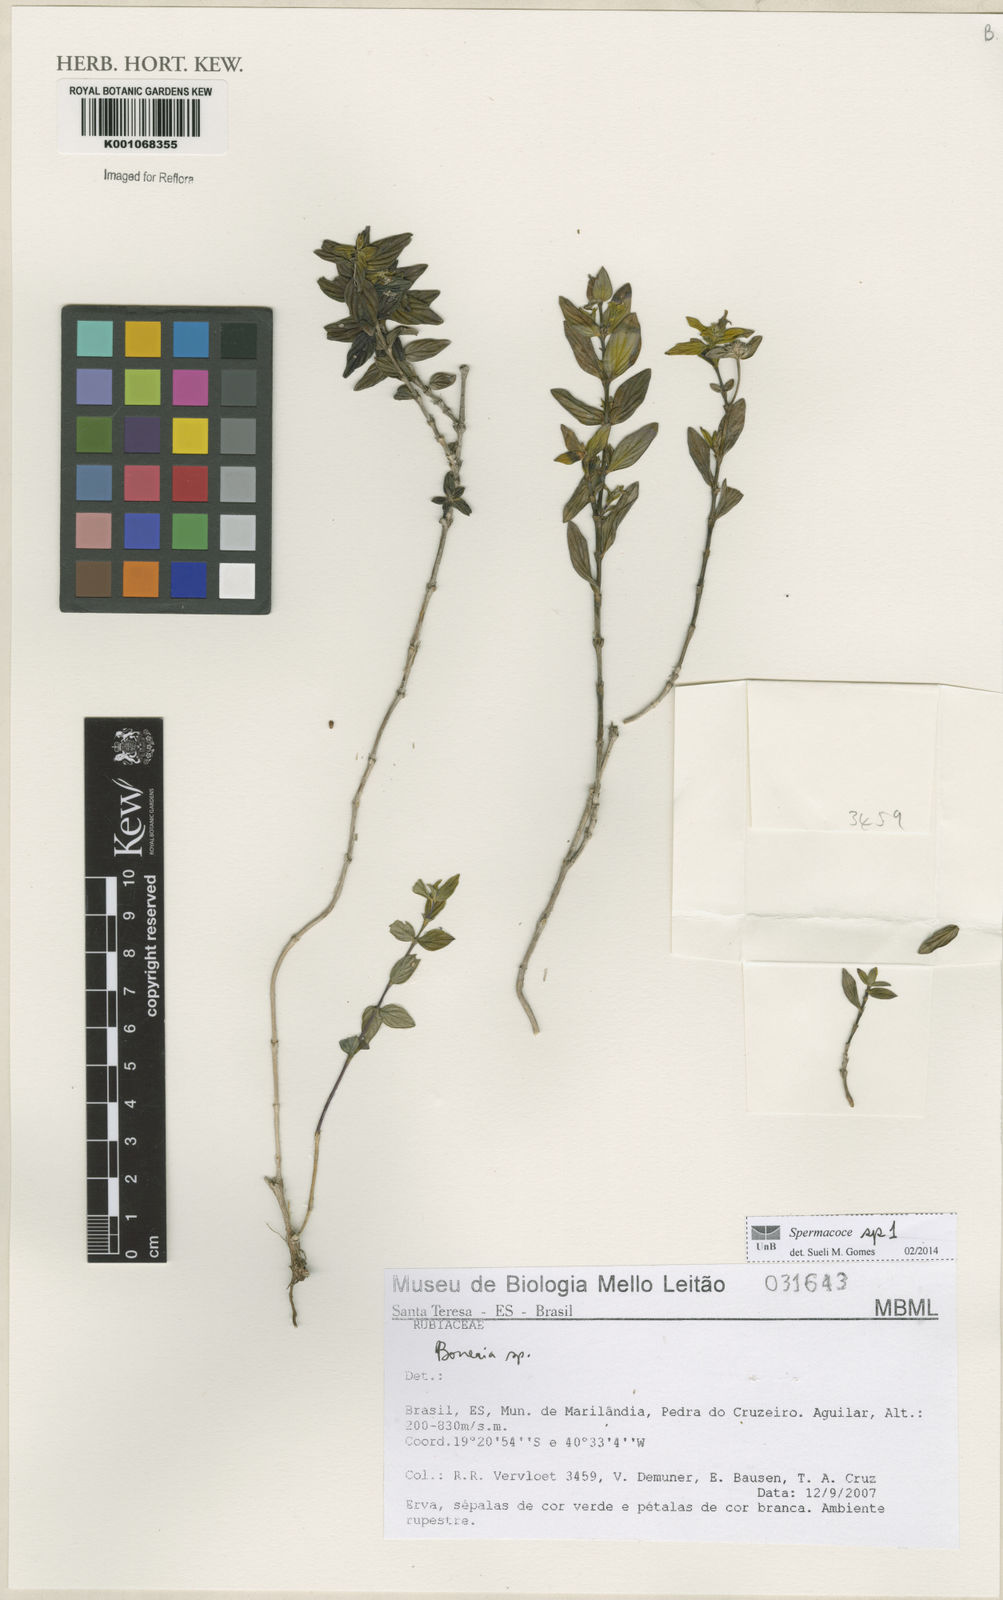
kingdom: Plantae
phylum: Tracheophyta
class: Magnoliopsida
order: Gentianales
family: Rubiaceae
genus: Spermacoce
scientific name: Spermacoce
